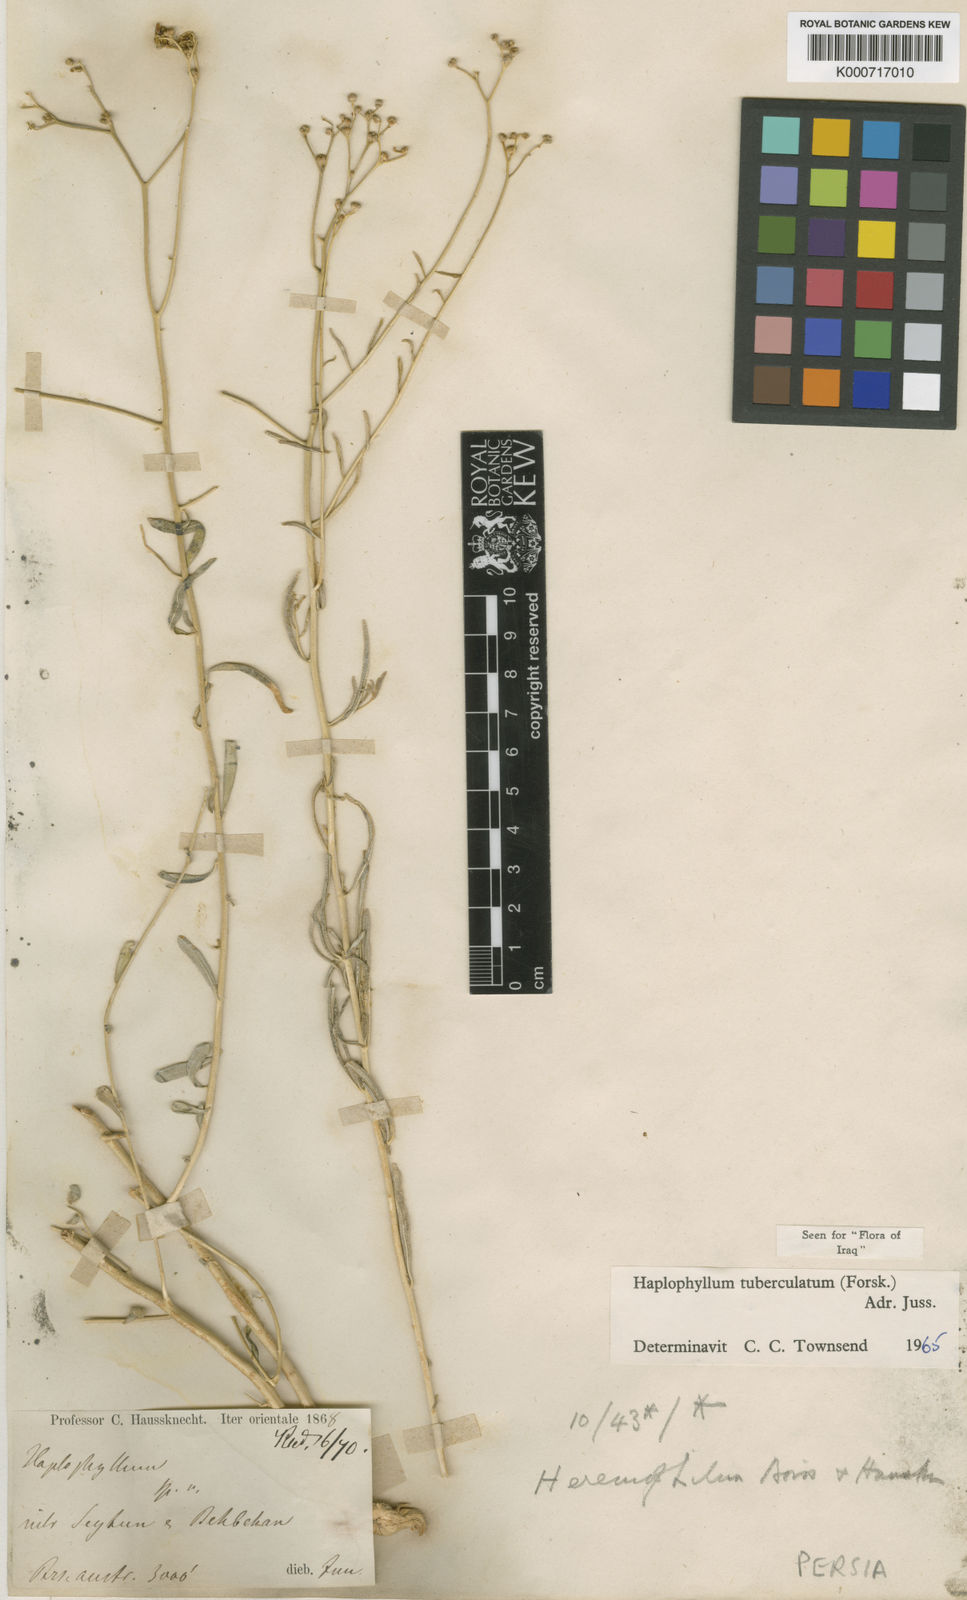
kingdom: Plantae
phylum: Tracheophyta
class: Magnoliopsida
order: Sapindales
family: Rutaceae
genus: Haplophyllum
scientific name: Haplophyllum tuberculatum
